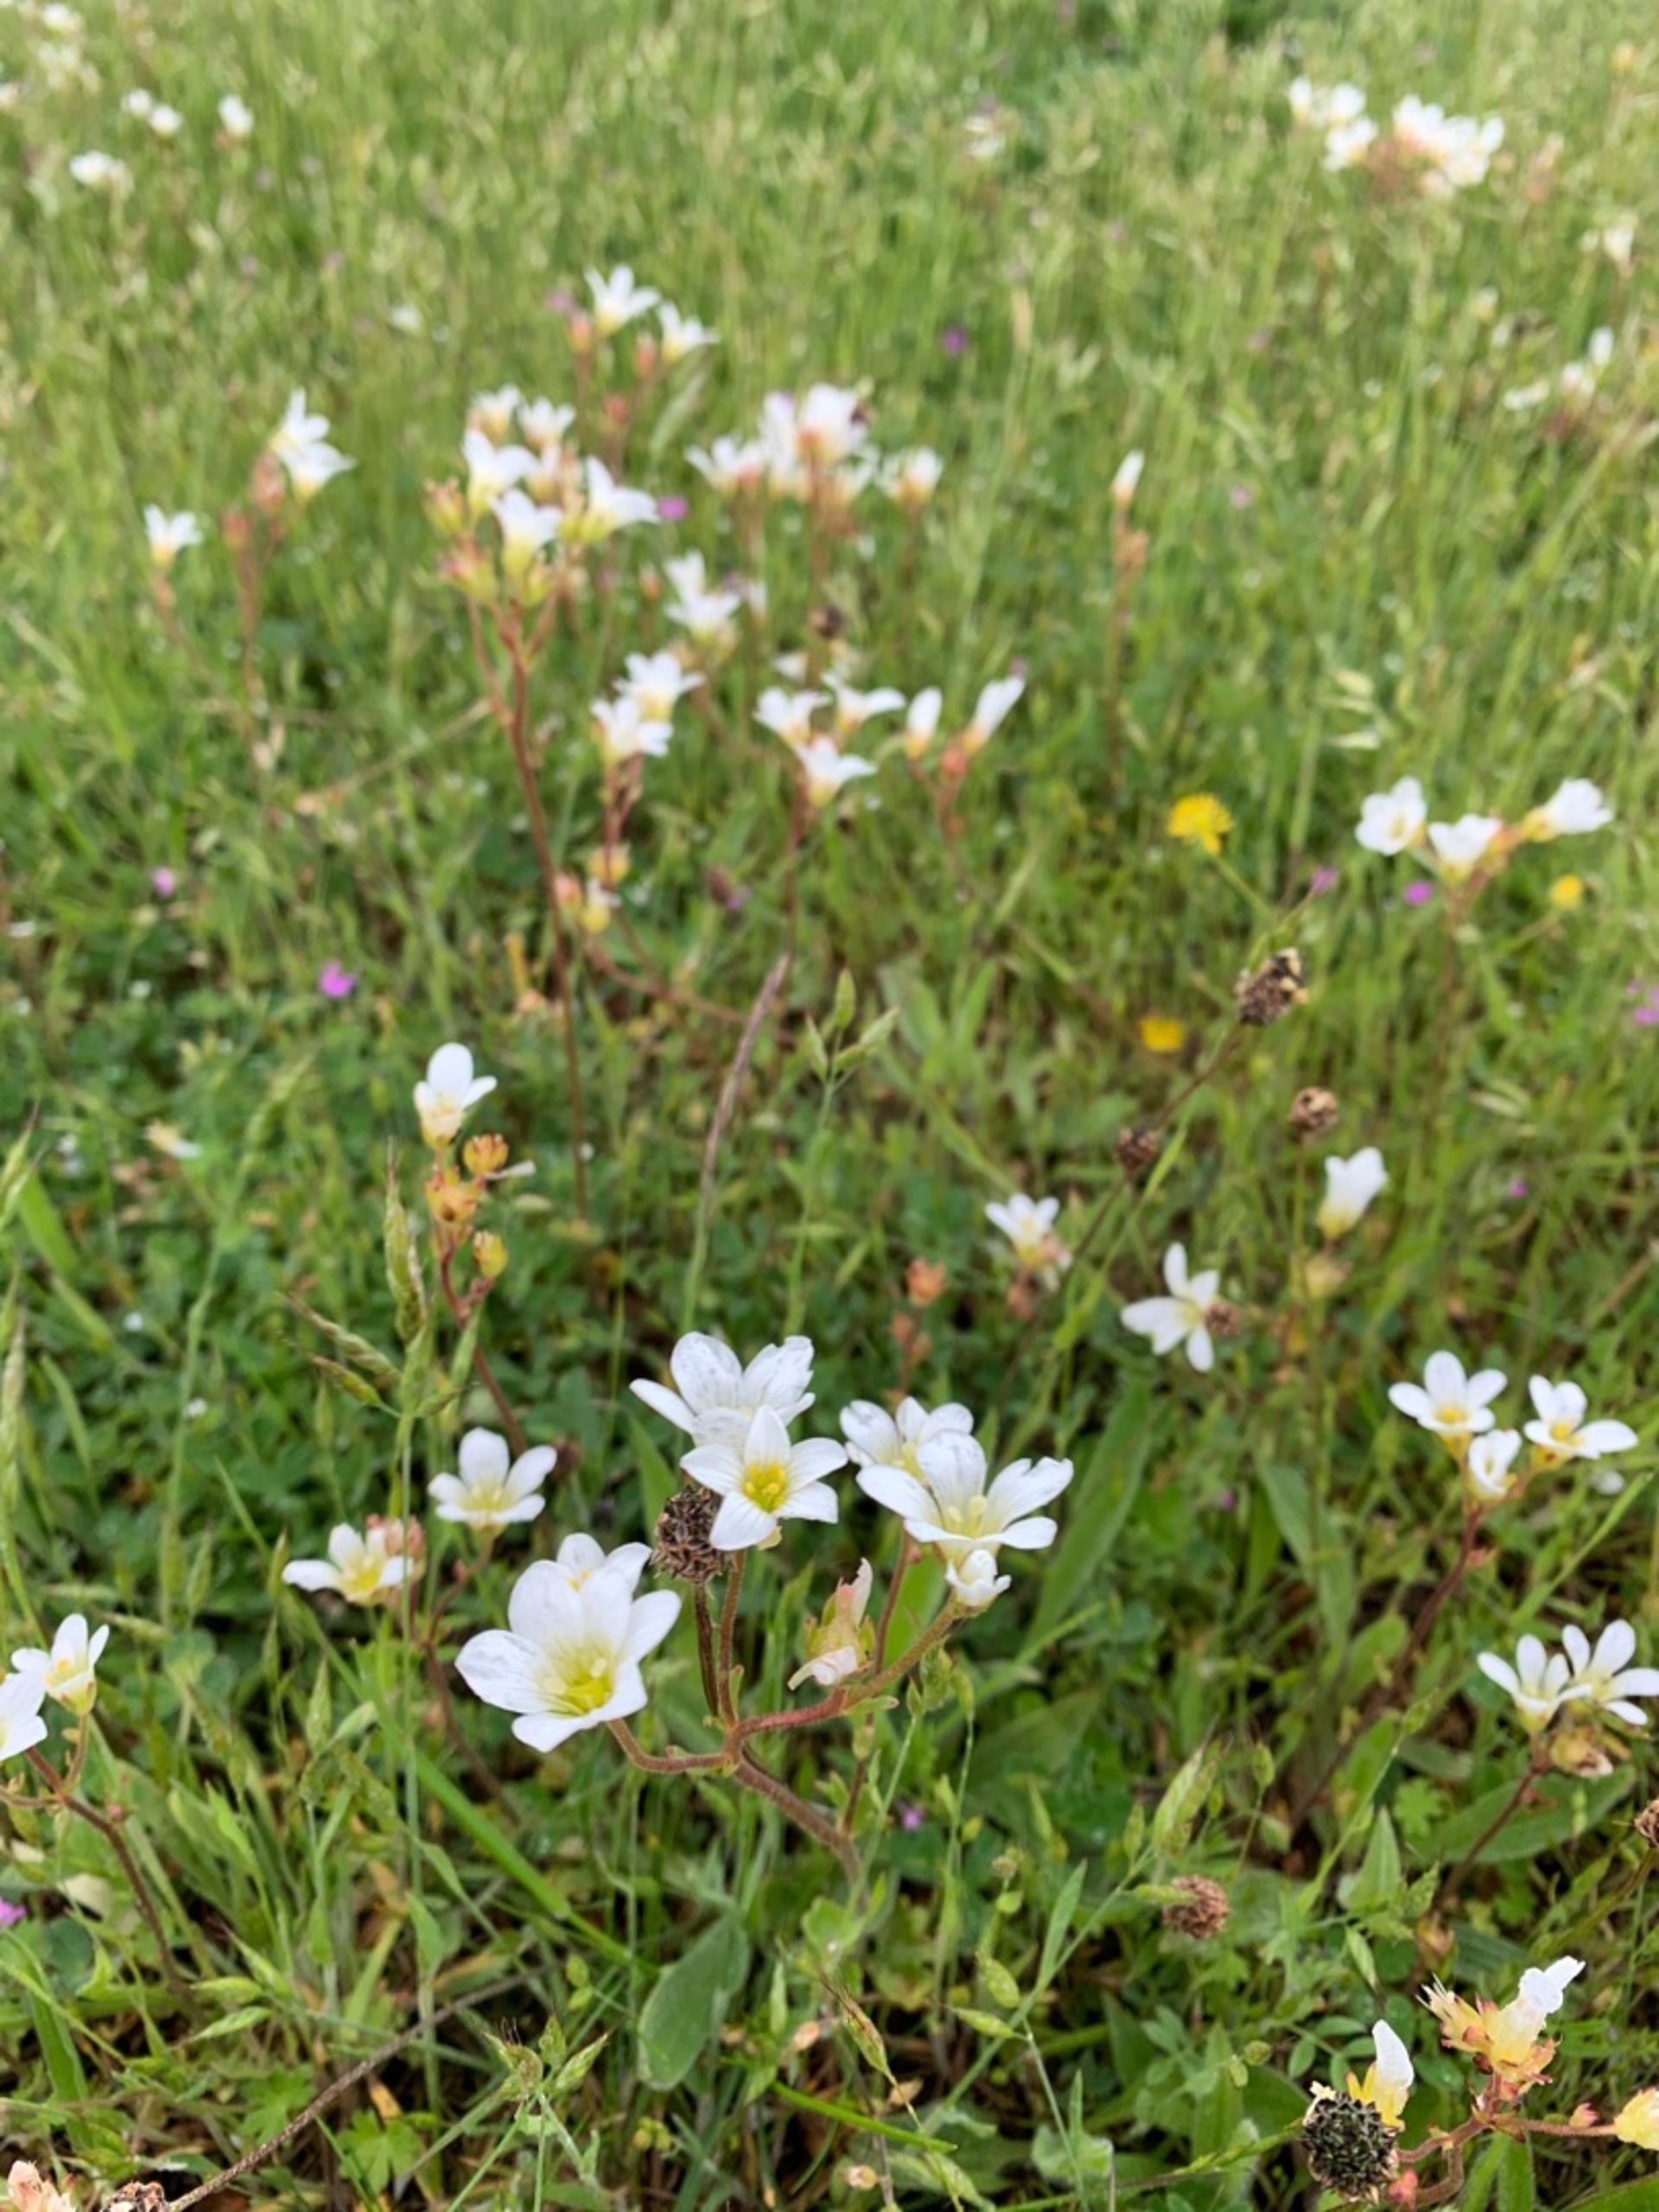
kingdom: Plantae
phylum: Tracheophyta
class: Magnoliopsida
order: Saxifragales
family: Saxifragaceae
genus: Saxifraga
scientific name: Saxifraga granulata
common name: Kornet stenbræk
